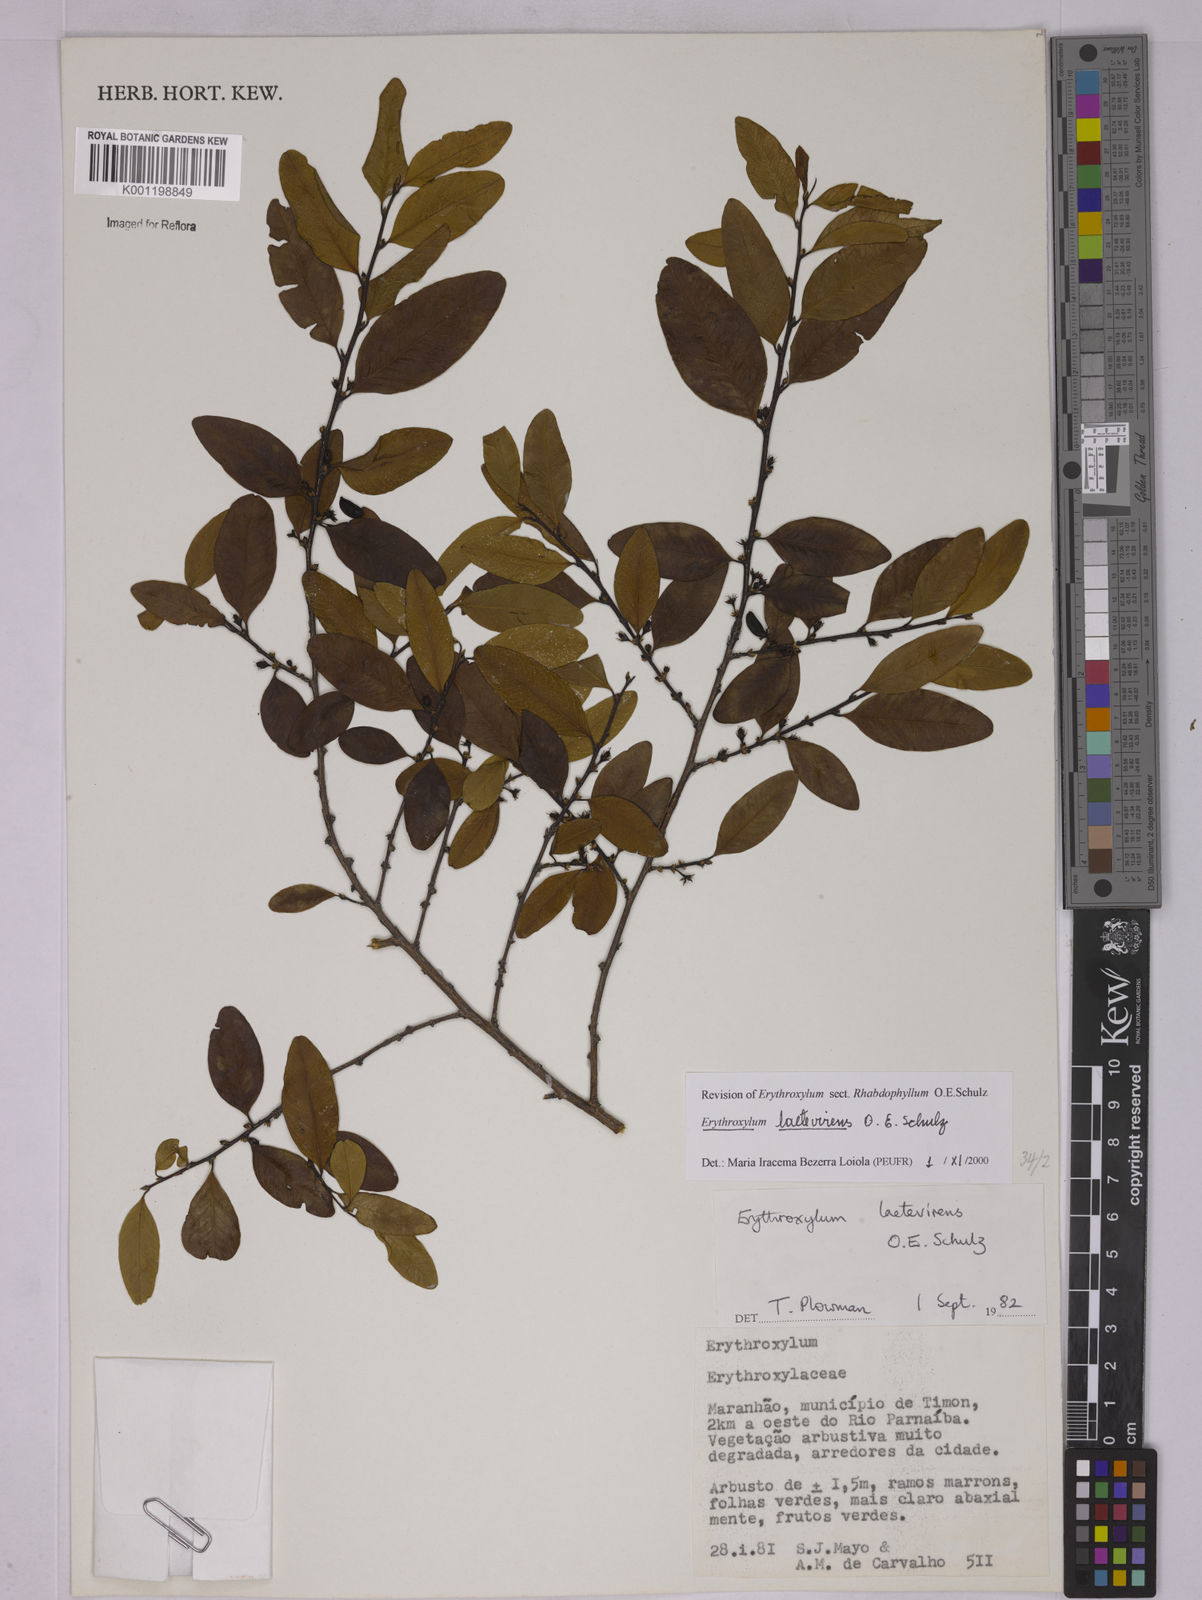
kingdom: Plantae
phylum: Tracheophyta
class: Magnoliopsida
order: Malpighiales
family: Erythroxylaceae
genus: Erythroxylum
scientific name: Erythroxylum laetevirens
